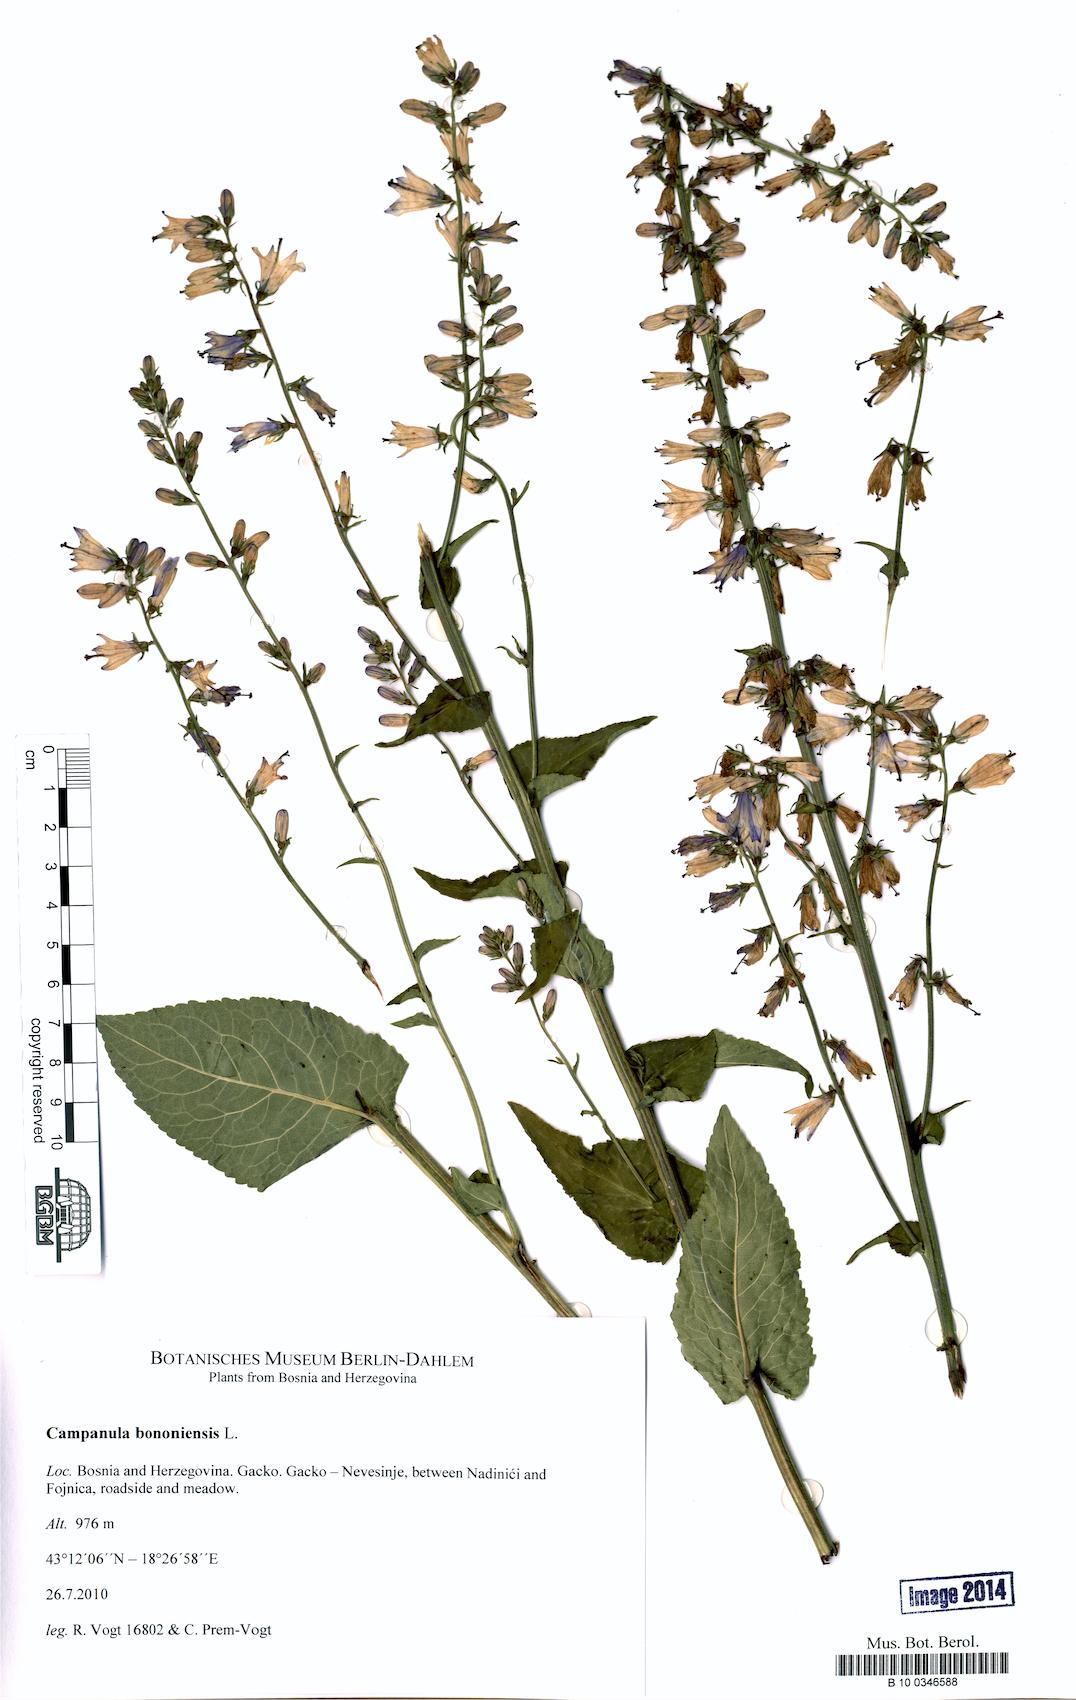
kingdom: Plantae
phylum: Tracheophyta
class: Magnoliopsida
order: Asterales
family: Campanulaceae
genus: Campanula
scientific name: Campanula bononiensis
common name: Pale bellflower
